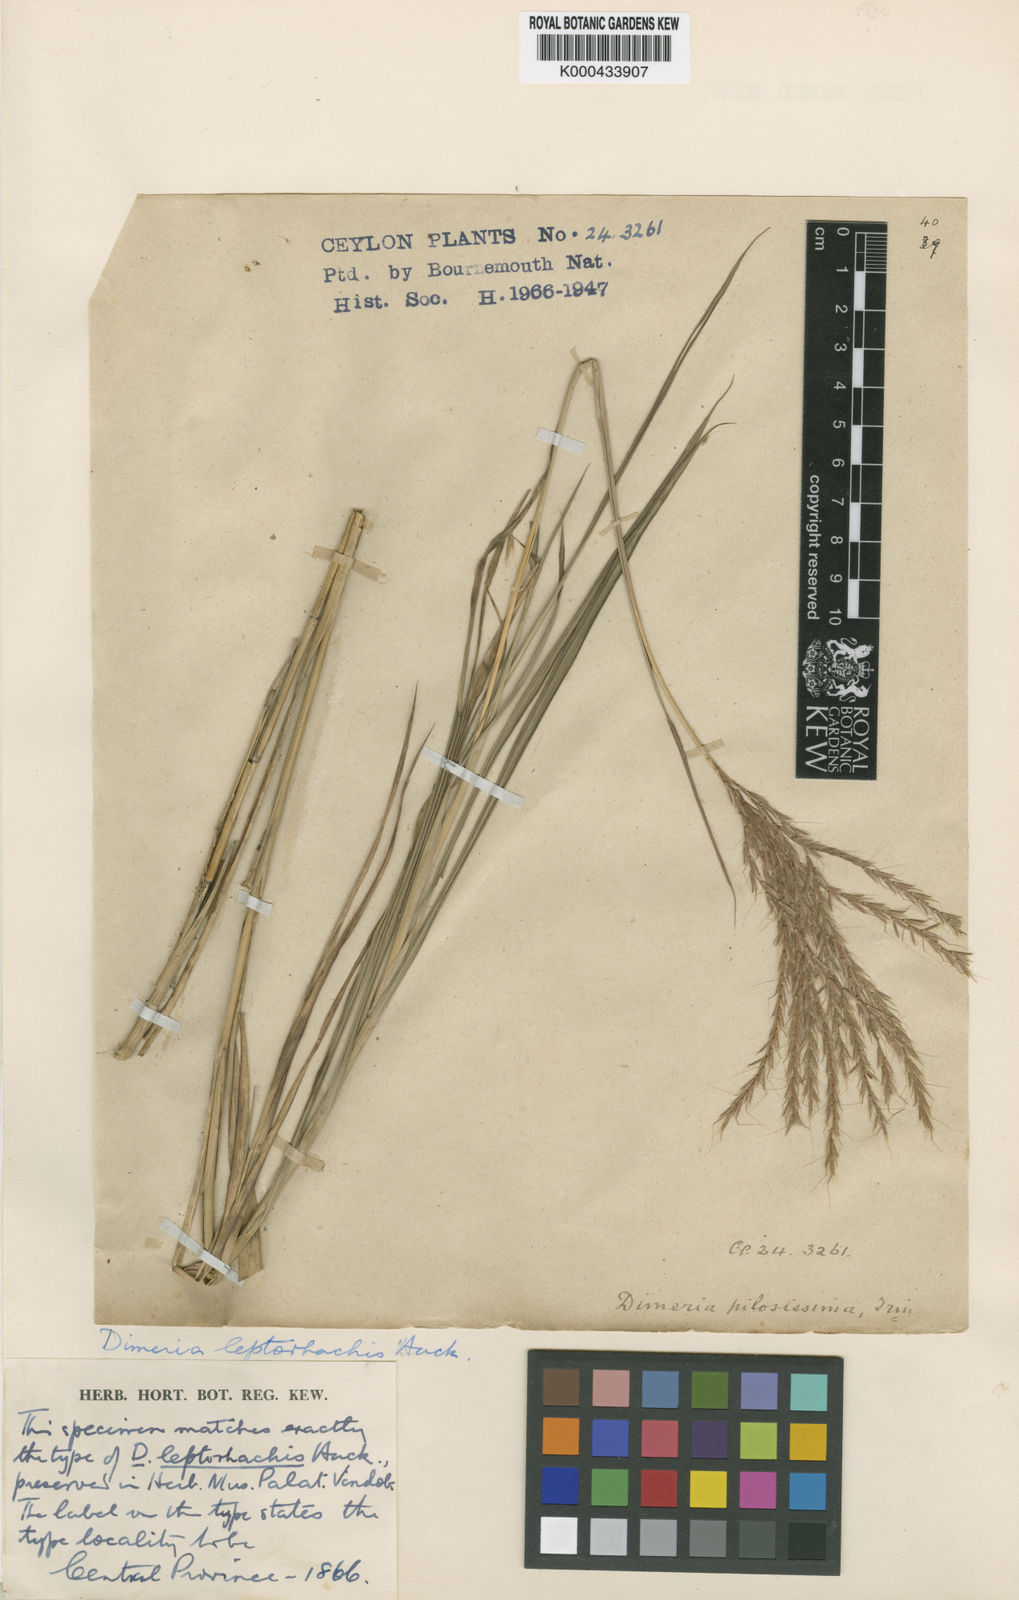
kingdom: Plantae
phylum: Tracheophyta
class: Liliopsida
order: Poales
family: Poaceae
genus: Dimeria
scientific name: Dimeria gracilis
